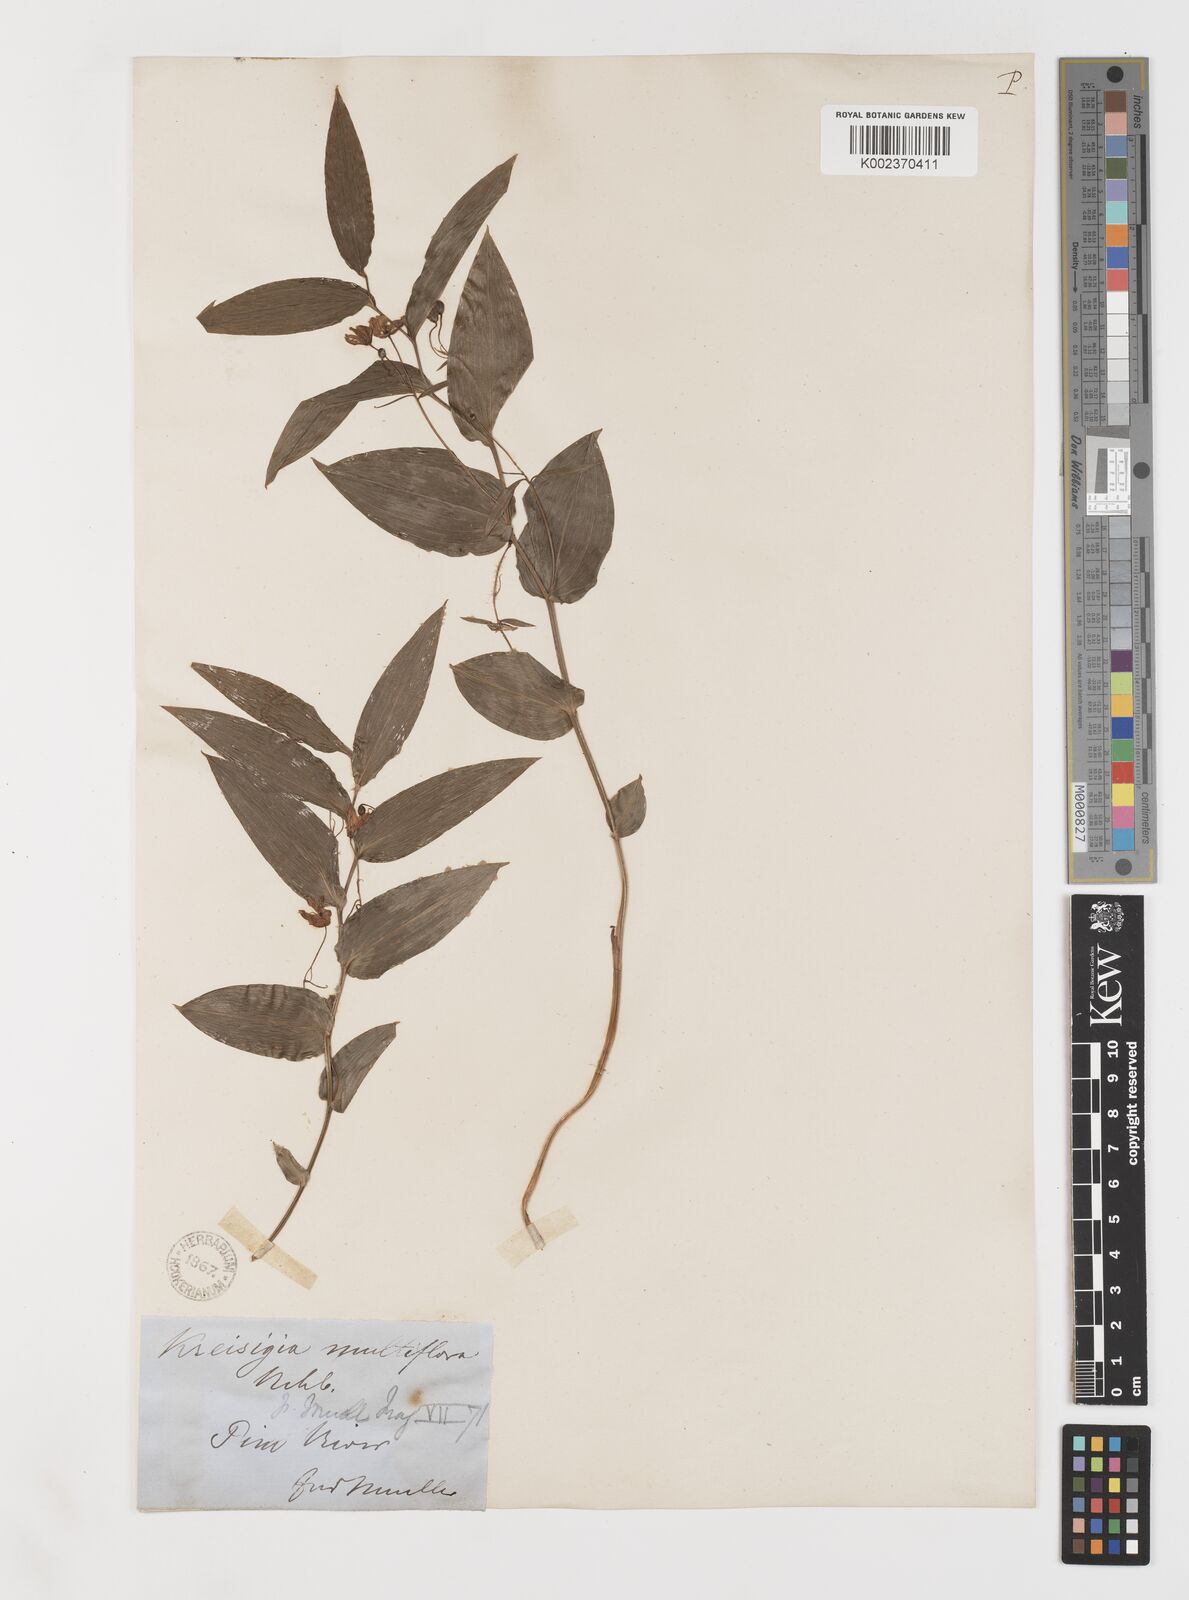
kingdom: Plantae
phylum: Tracheophyta
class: Liliopsida
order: Liliales
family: Colchicaceae
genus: Tripladenia
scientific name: Tripladenia
